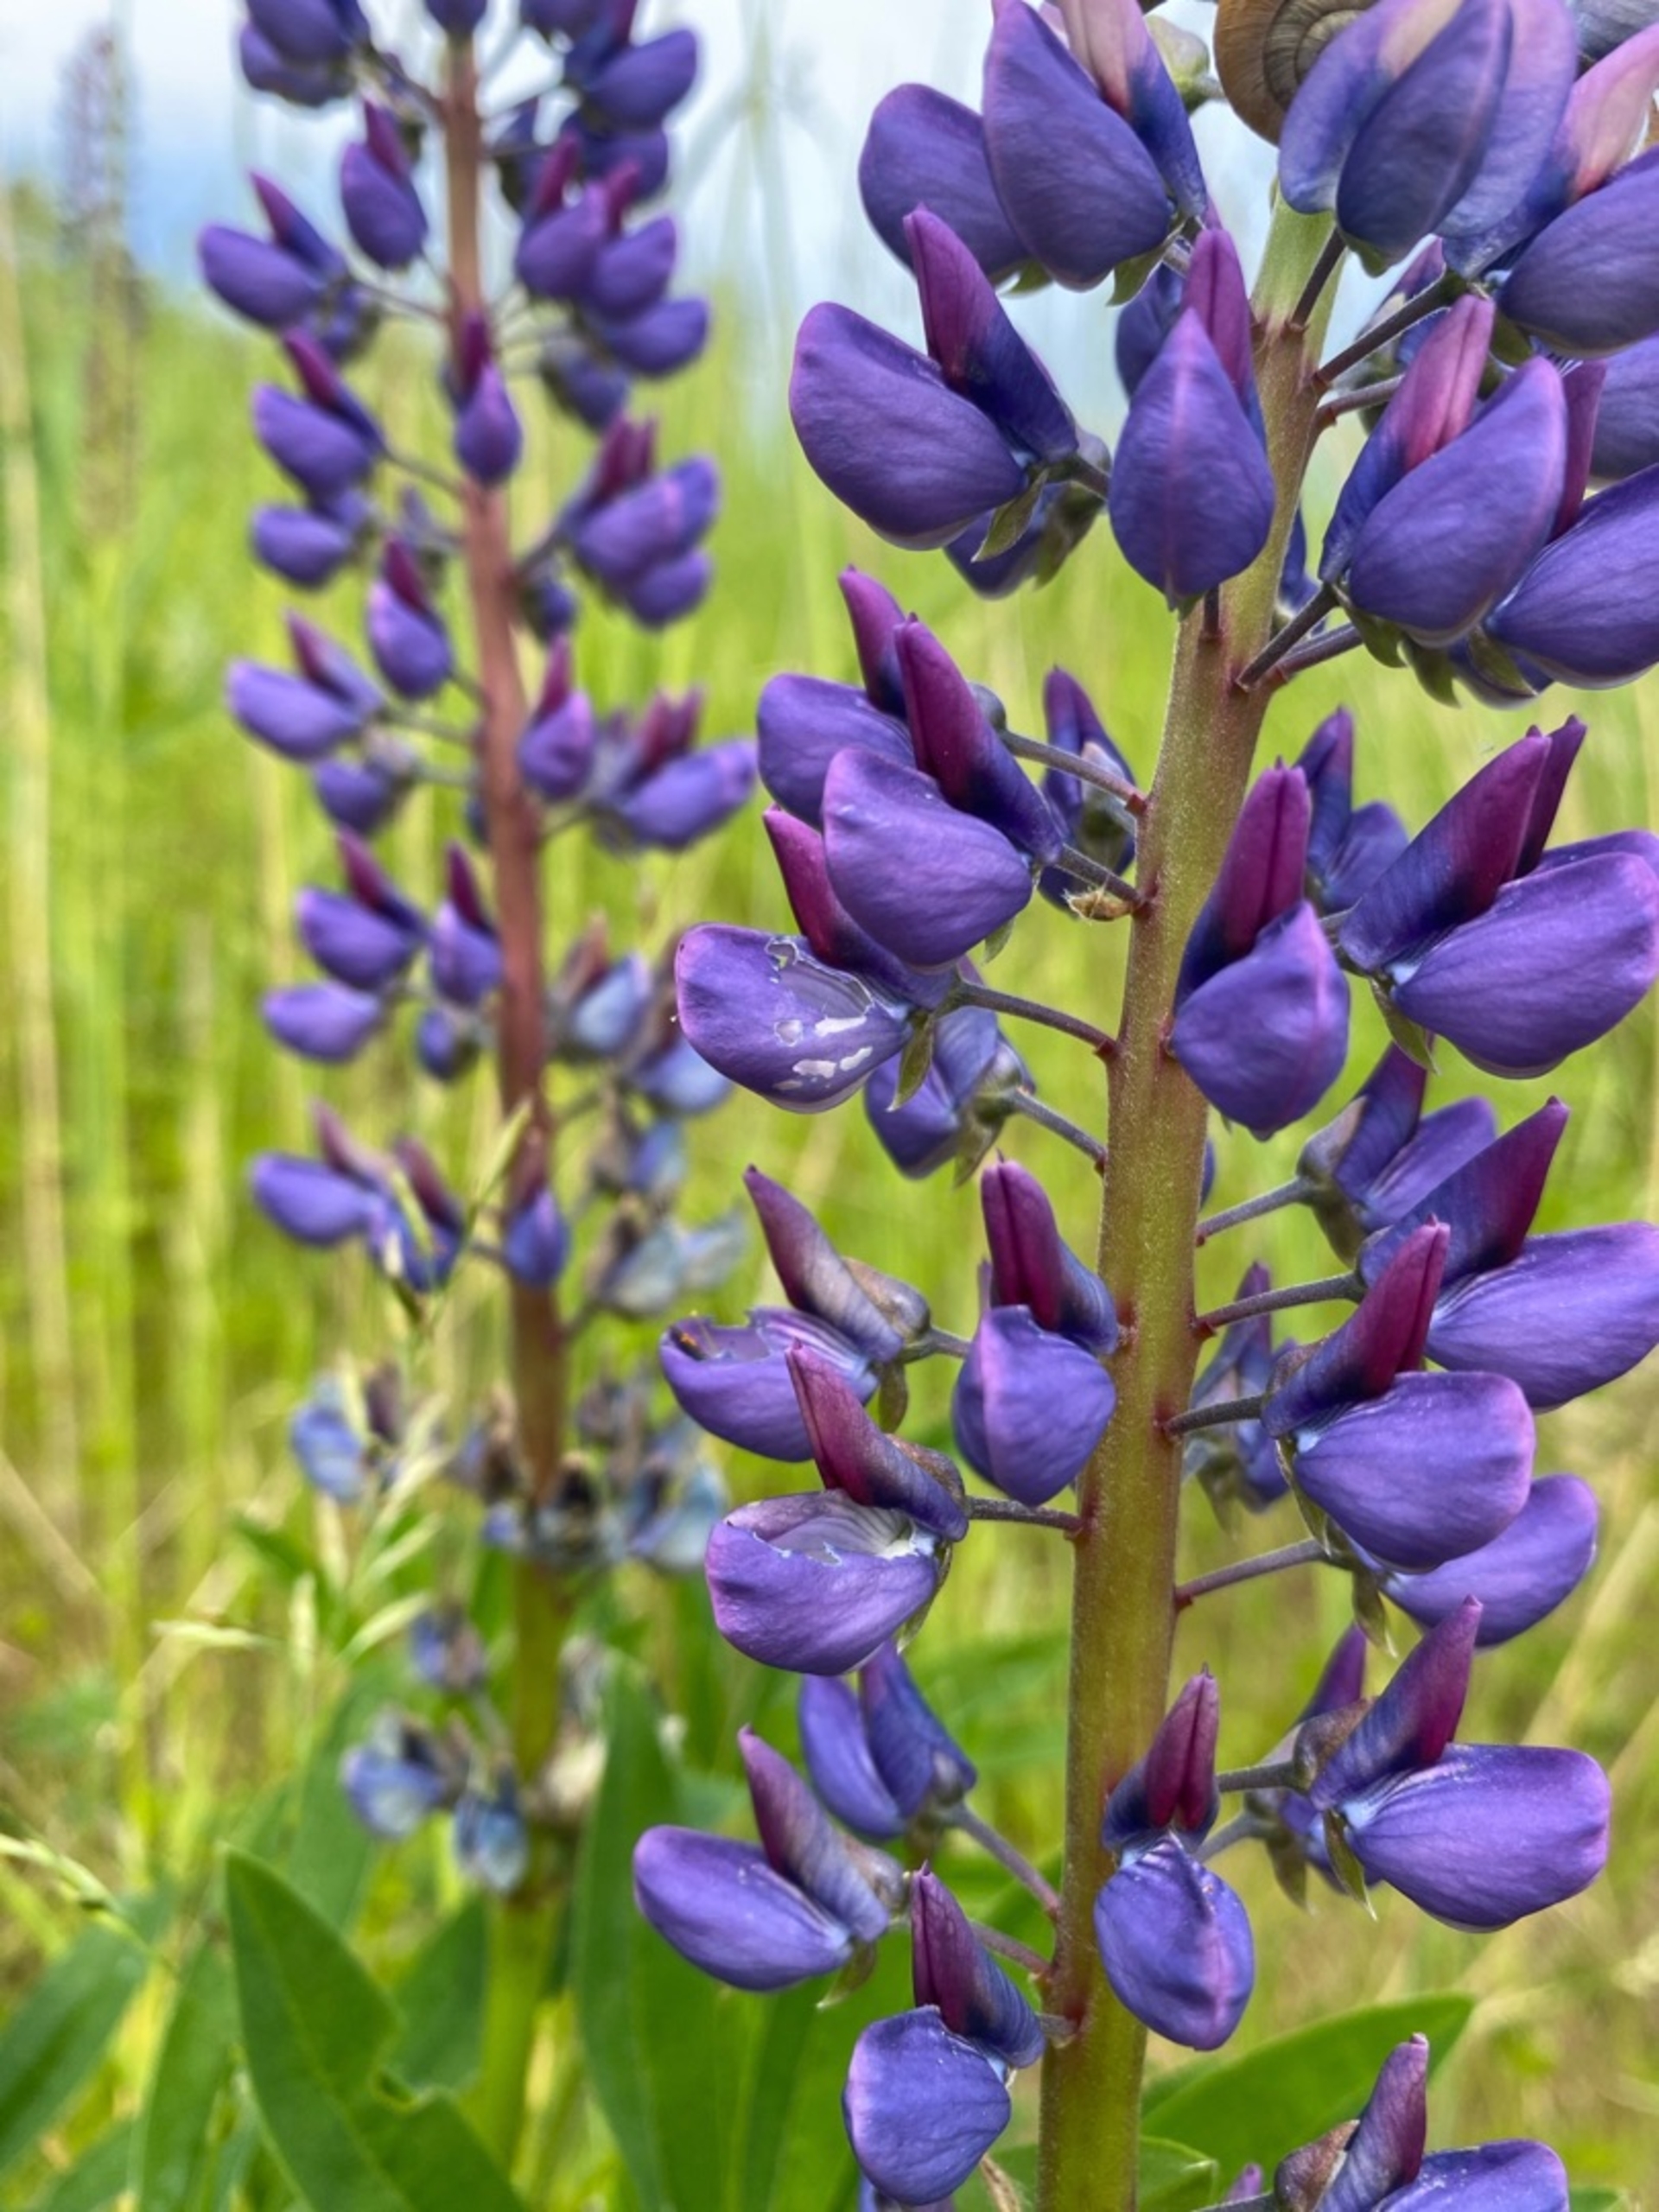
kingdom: Plantae
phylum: Tracheophyta
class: Magnoliopsida
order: Fabales
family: Fabaceae
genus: Lupinus
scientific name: Lupinus polyphyllus
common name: Mangebladet lupin
